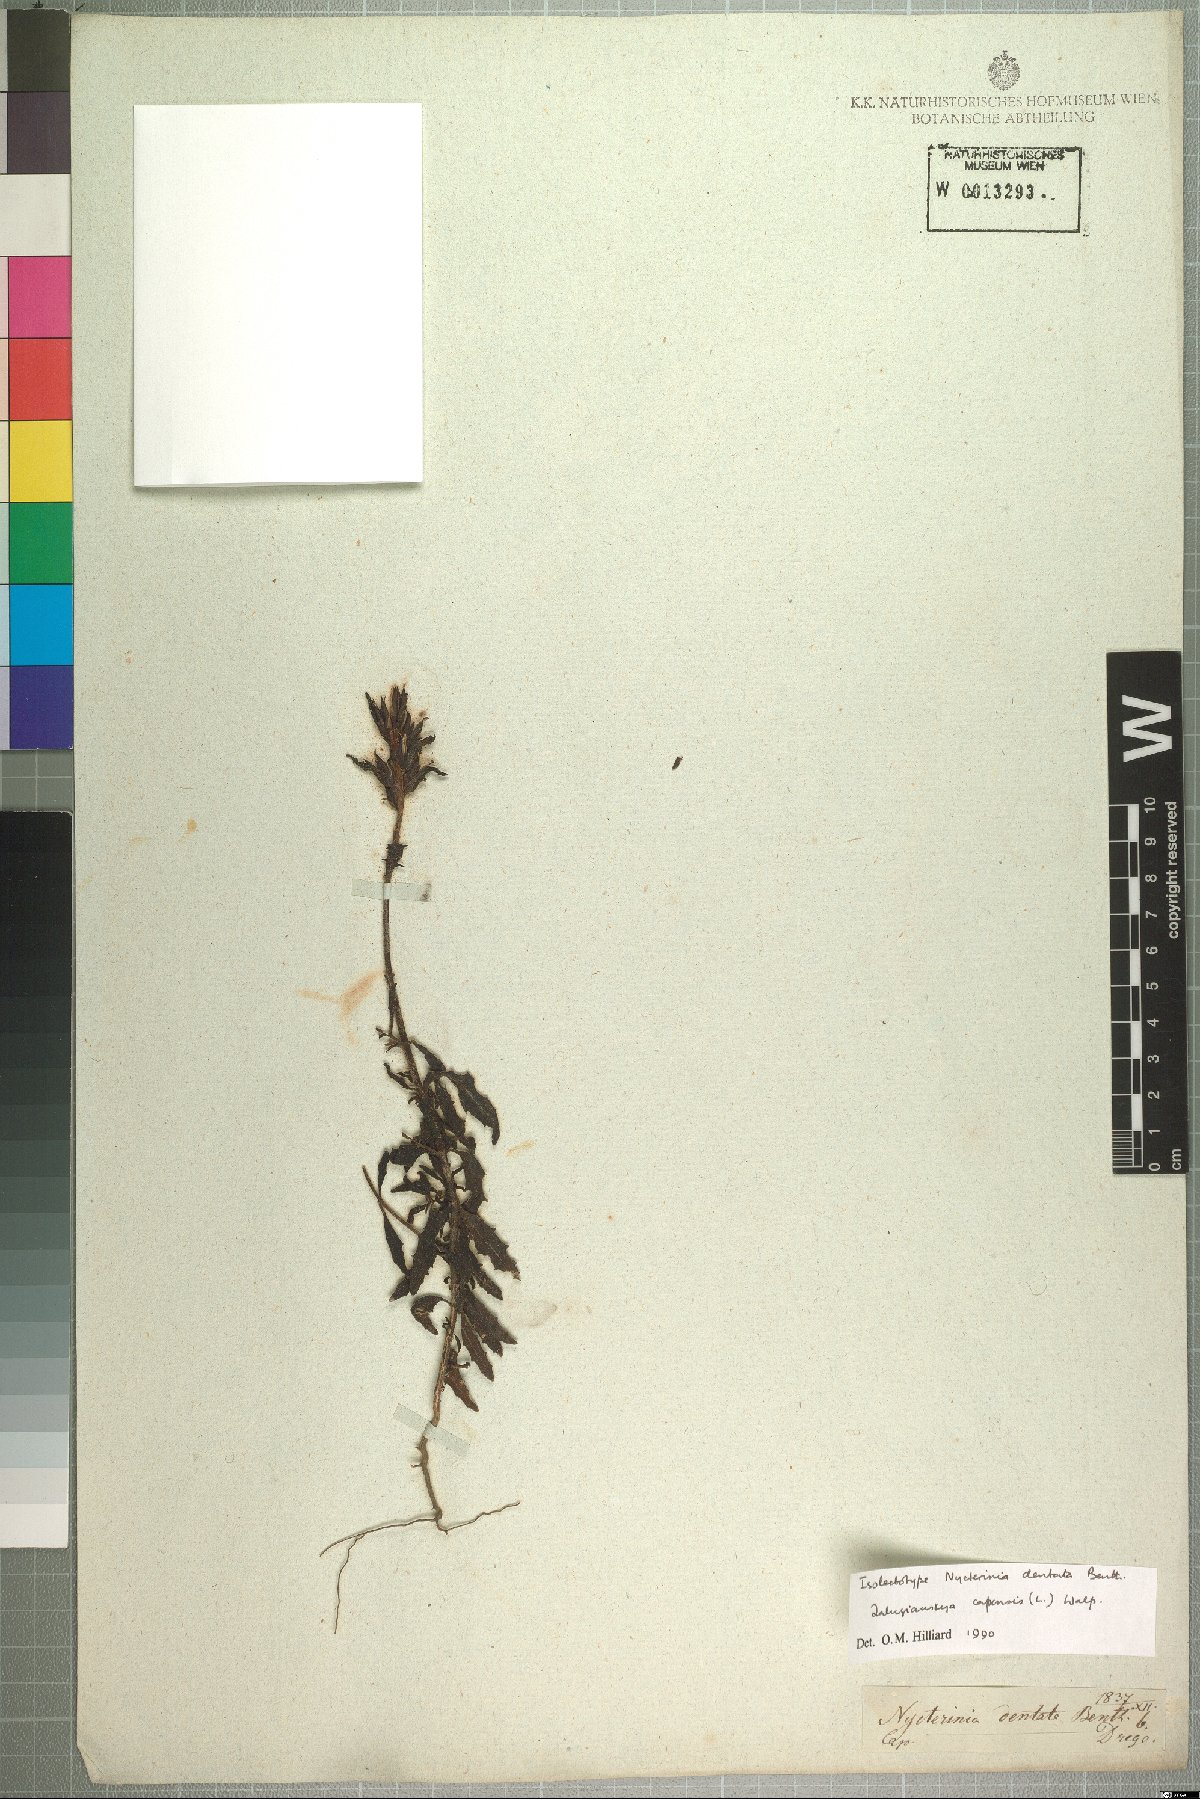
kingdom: Plantae
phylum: Tracheophyta
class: Magnoliopsida
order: Lamiales
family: Scrophulariaceae
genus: Zaluzianskya
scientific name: Zaluzianskya capensis
